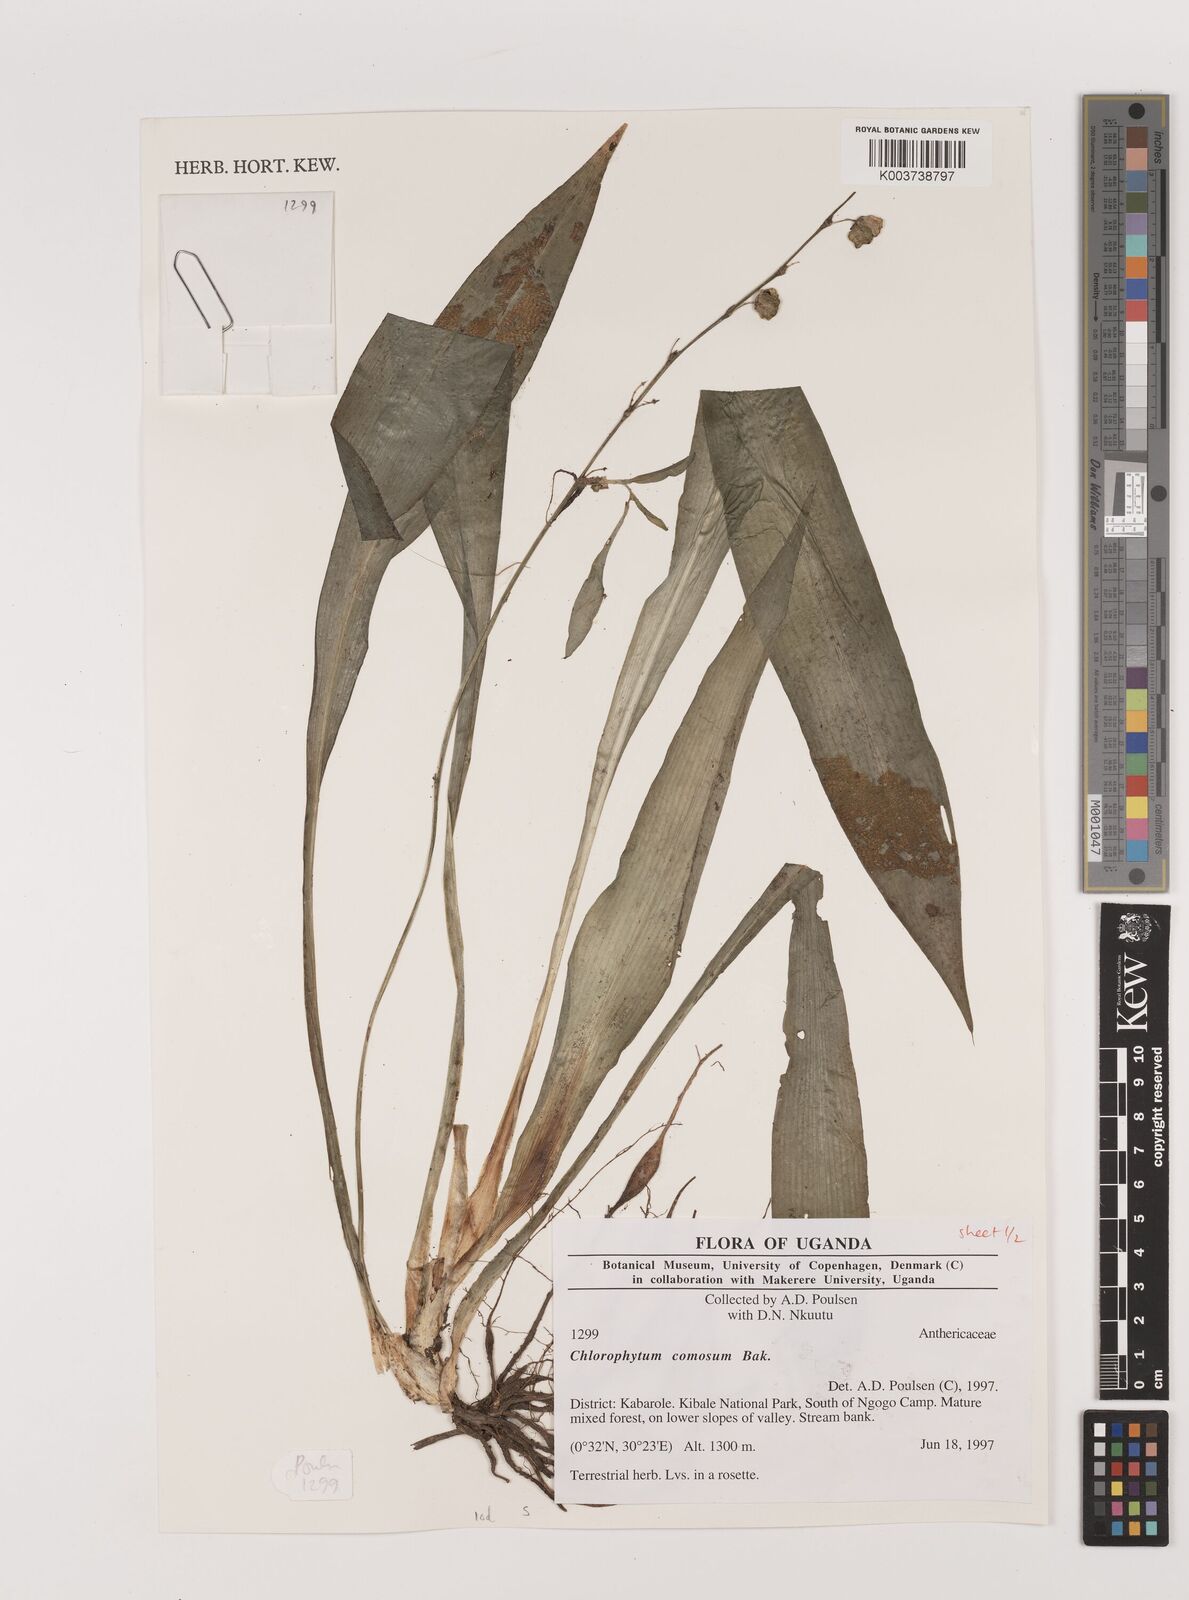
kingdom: Plantae
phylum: Tracheophyta
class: Liliopsida
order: Asparagales
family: Asparagaceae
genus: Chlorophytum
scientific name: Chlorophytum comosum
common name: Spider plant
